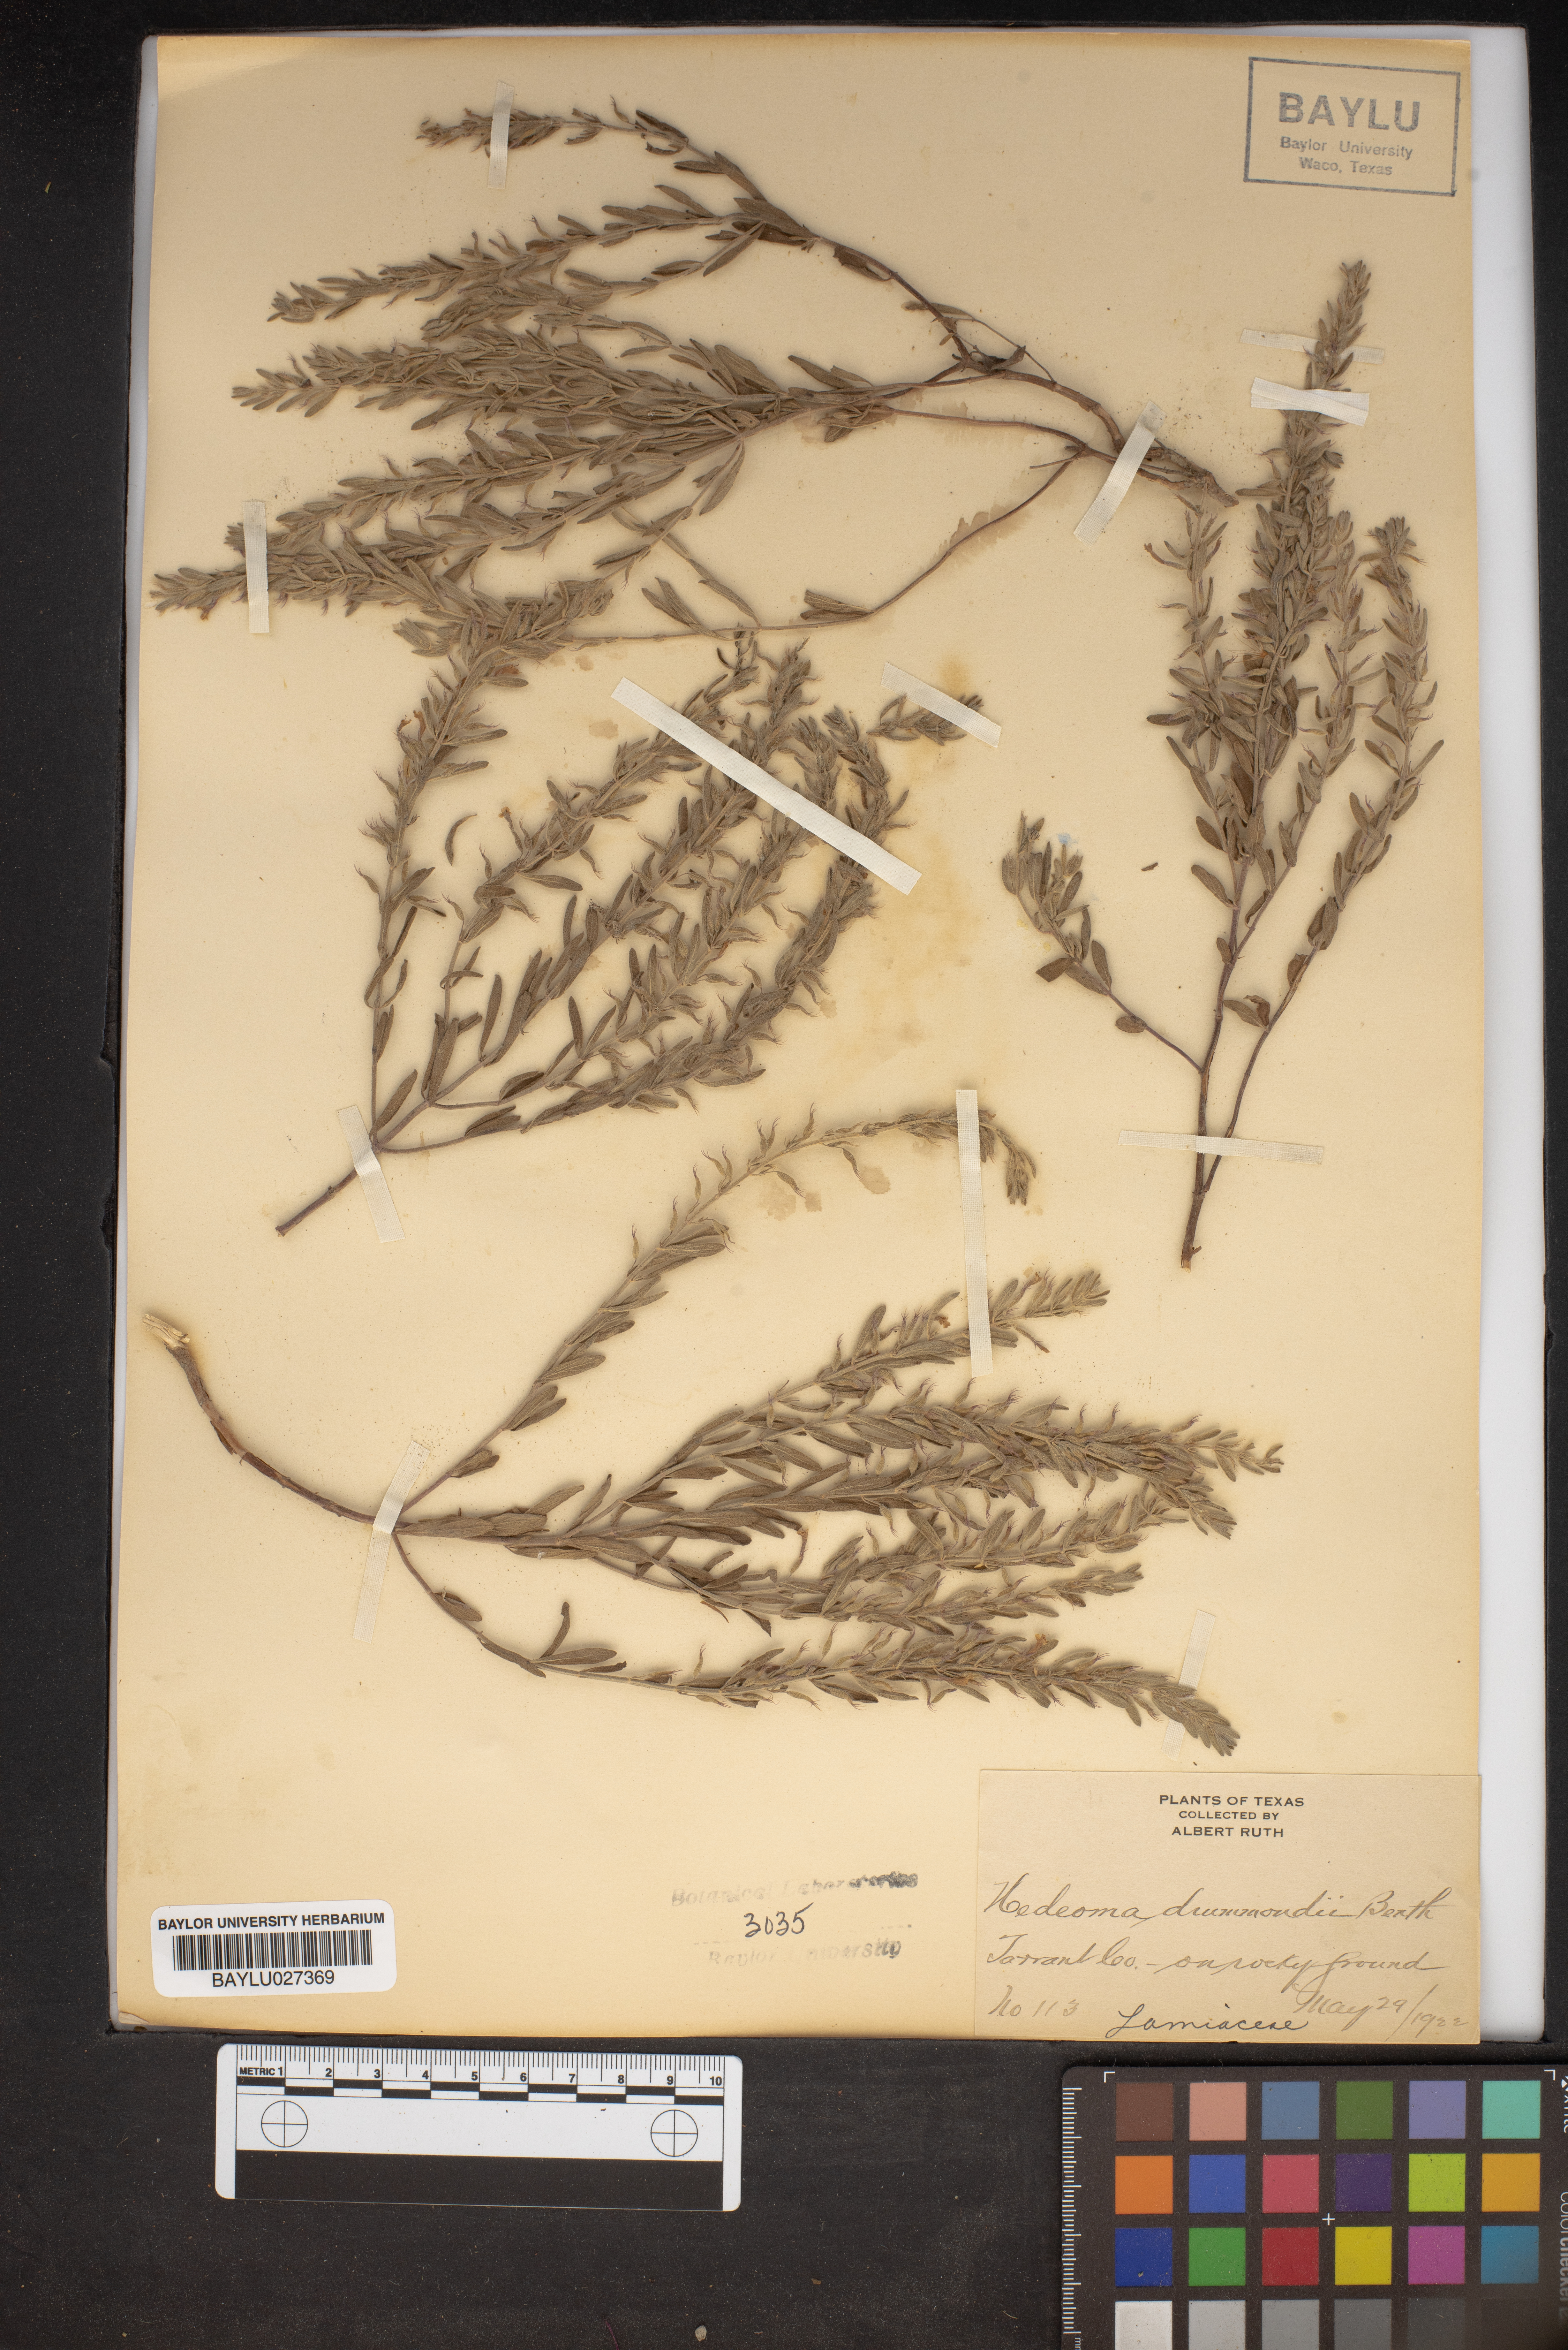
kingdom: Plantae
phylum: Tracheophyta
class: Magnoliopsida
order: Lamiales
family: Lamiaceae
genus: Hedeoma
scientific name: Hedeoma drummondii
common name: New mexico pennyroyal
